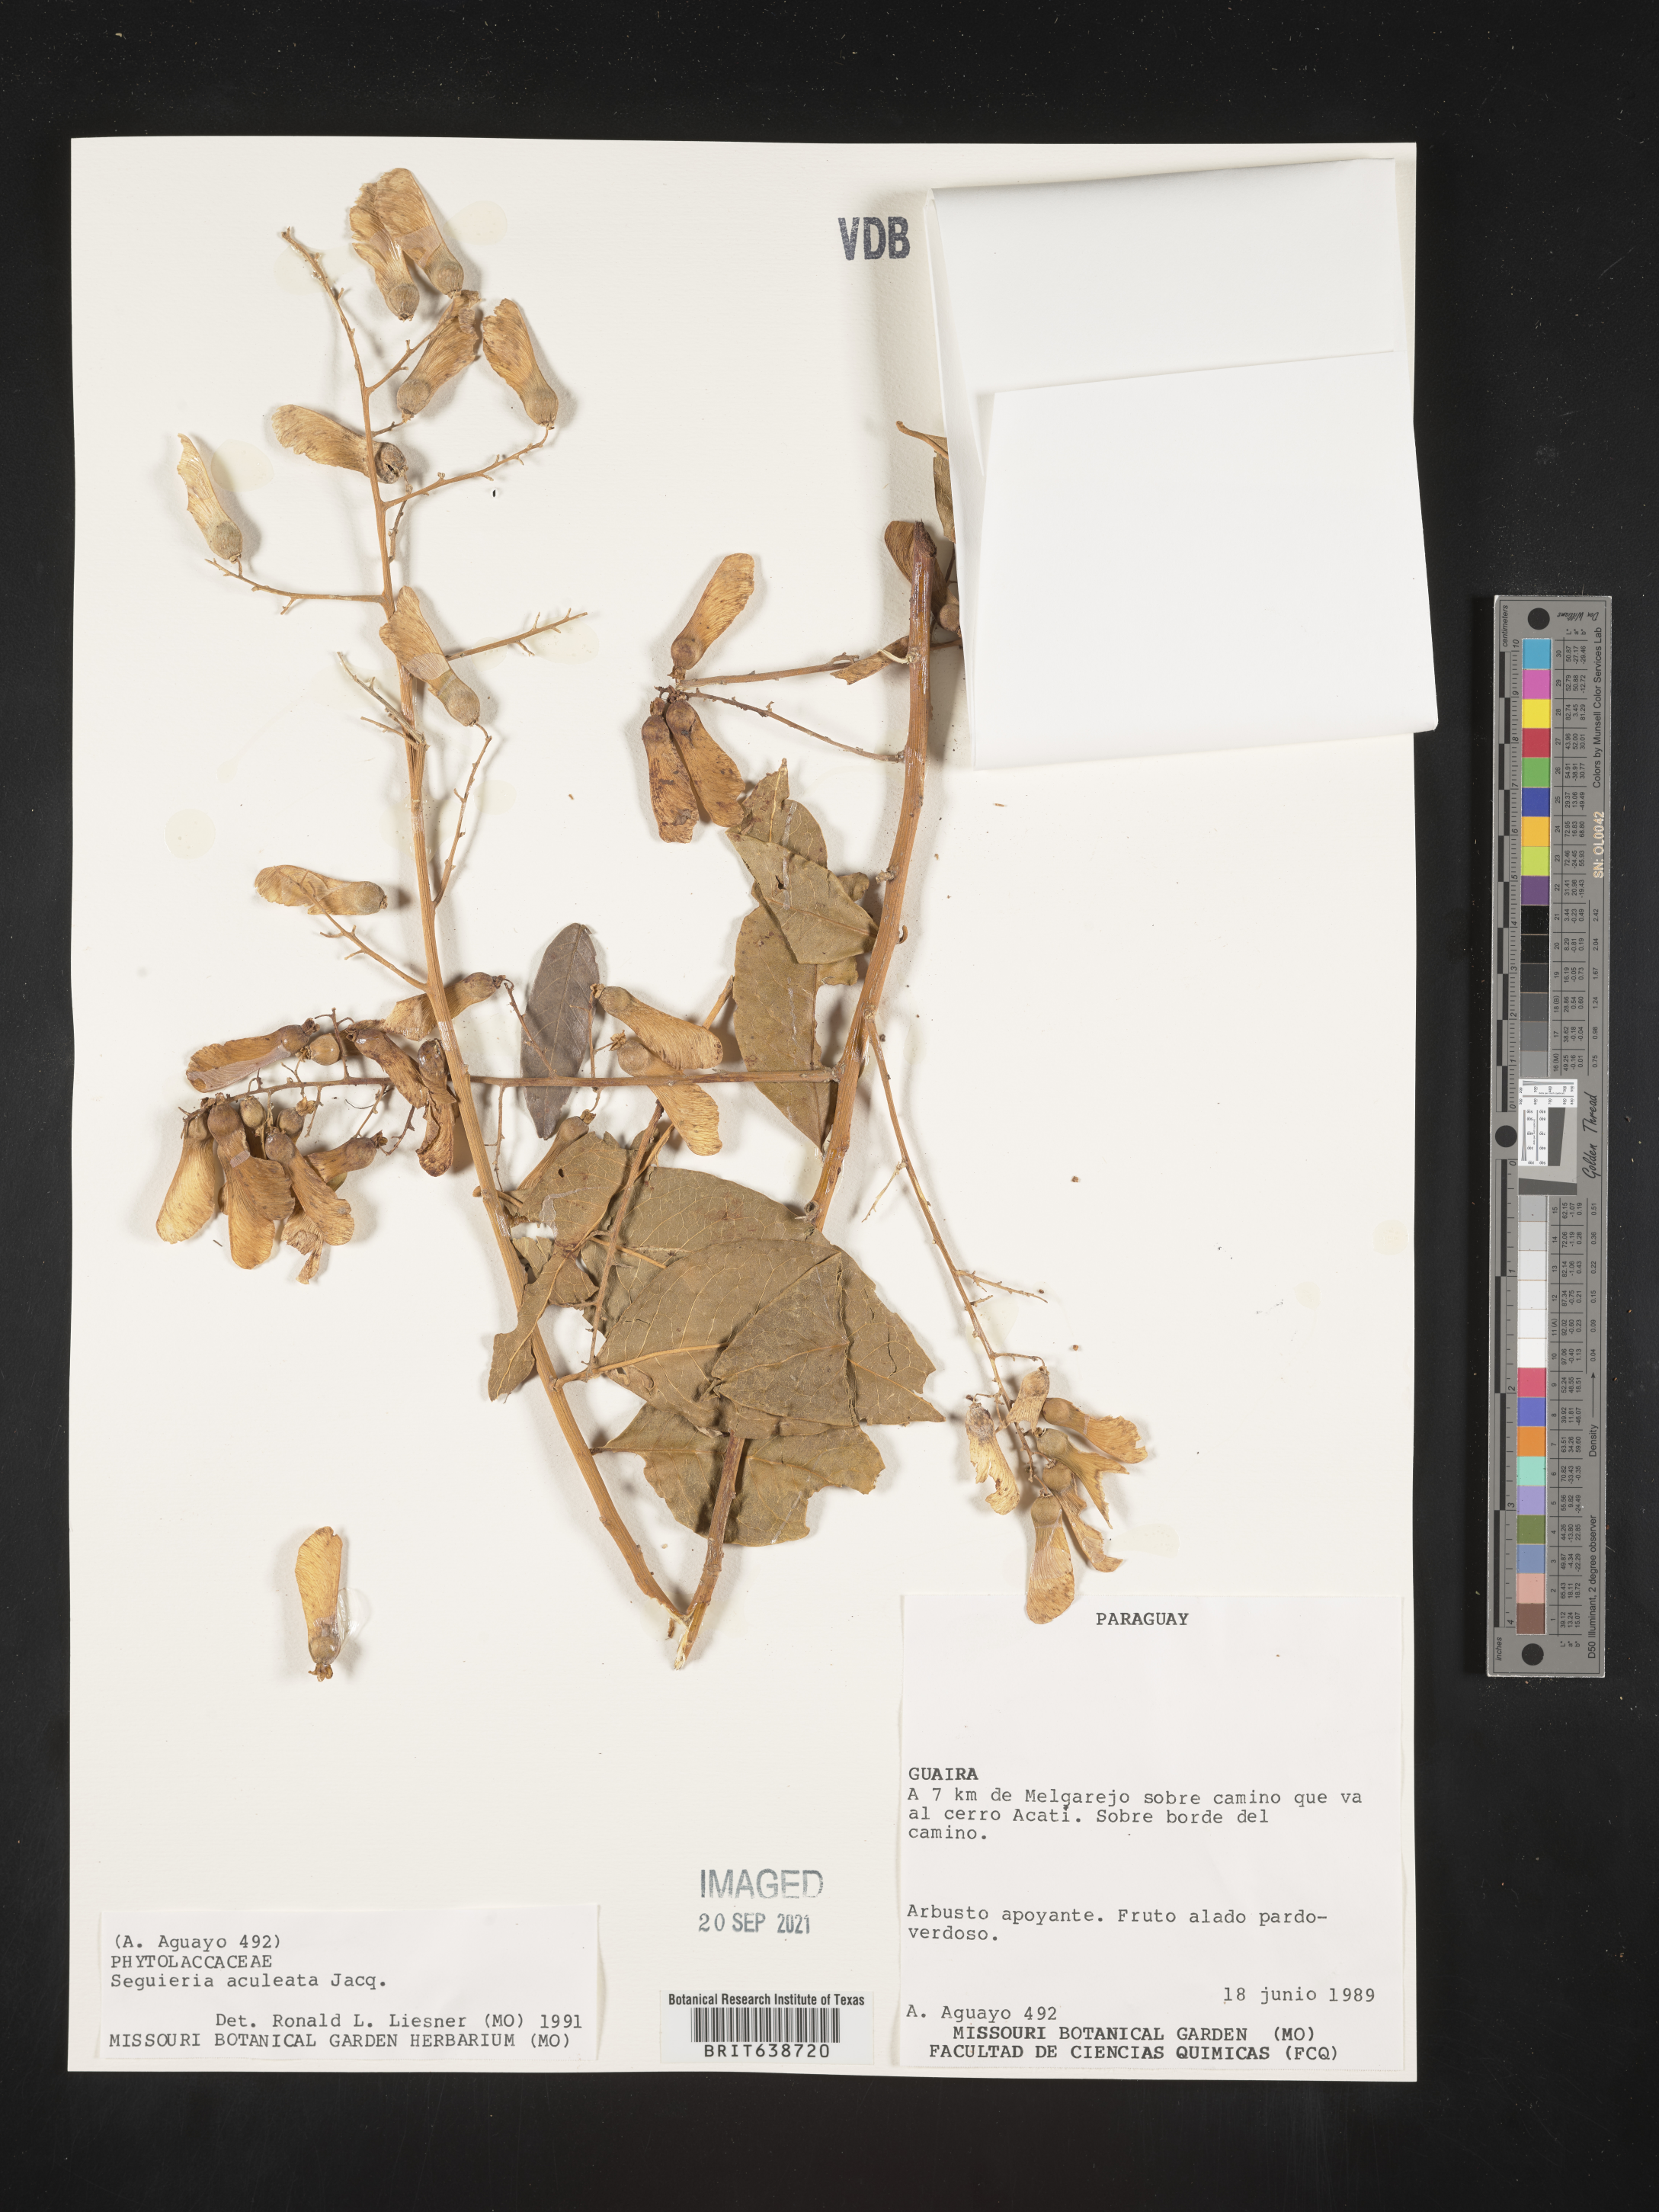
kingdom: Plantae
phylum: Tracheophyta
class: Magnoliopsida
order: Caryophyllales
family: Phytolaccaceae
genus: Seguiera
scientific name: Seguiera
